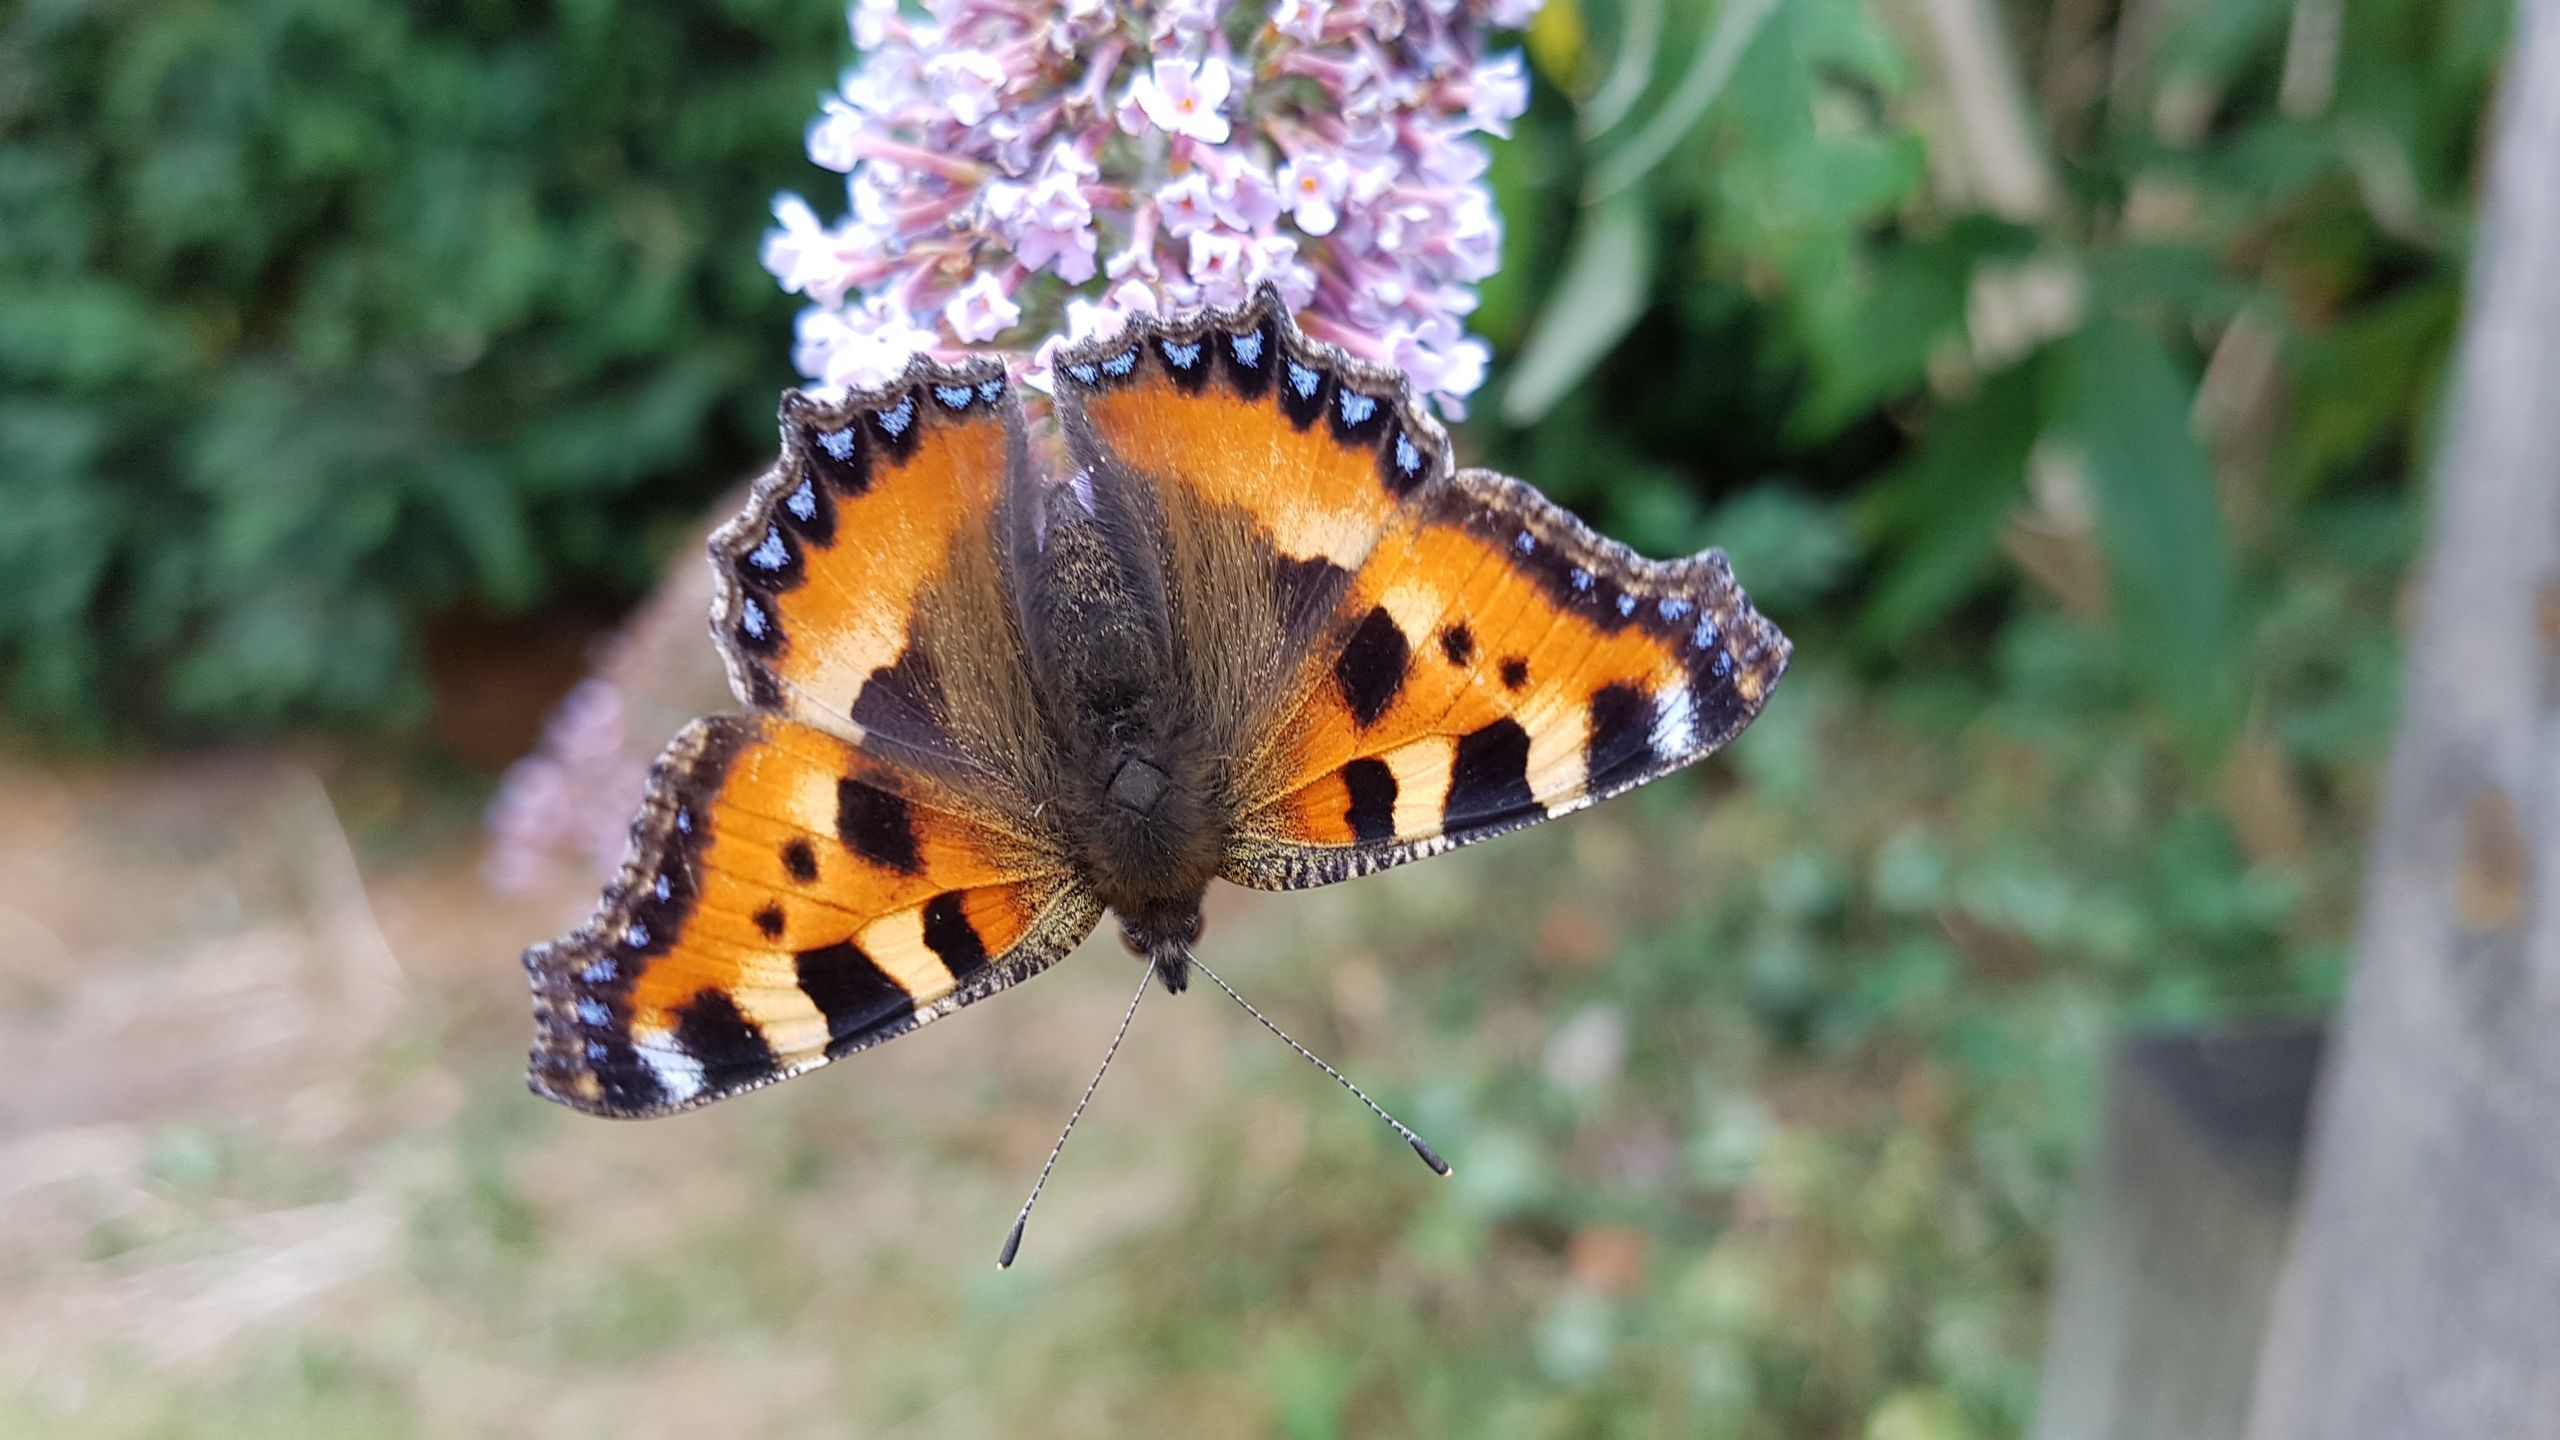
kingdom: Animalia
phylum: Arthropoda
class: Insecta
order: Lepidoptera
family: Nymphalidae
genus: Aglais
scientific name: Aglais urticae
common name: Nældens takvinge
